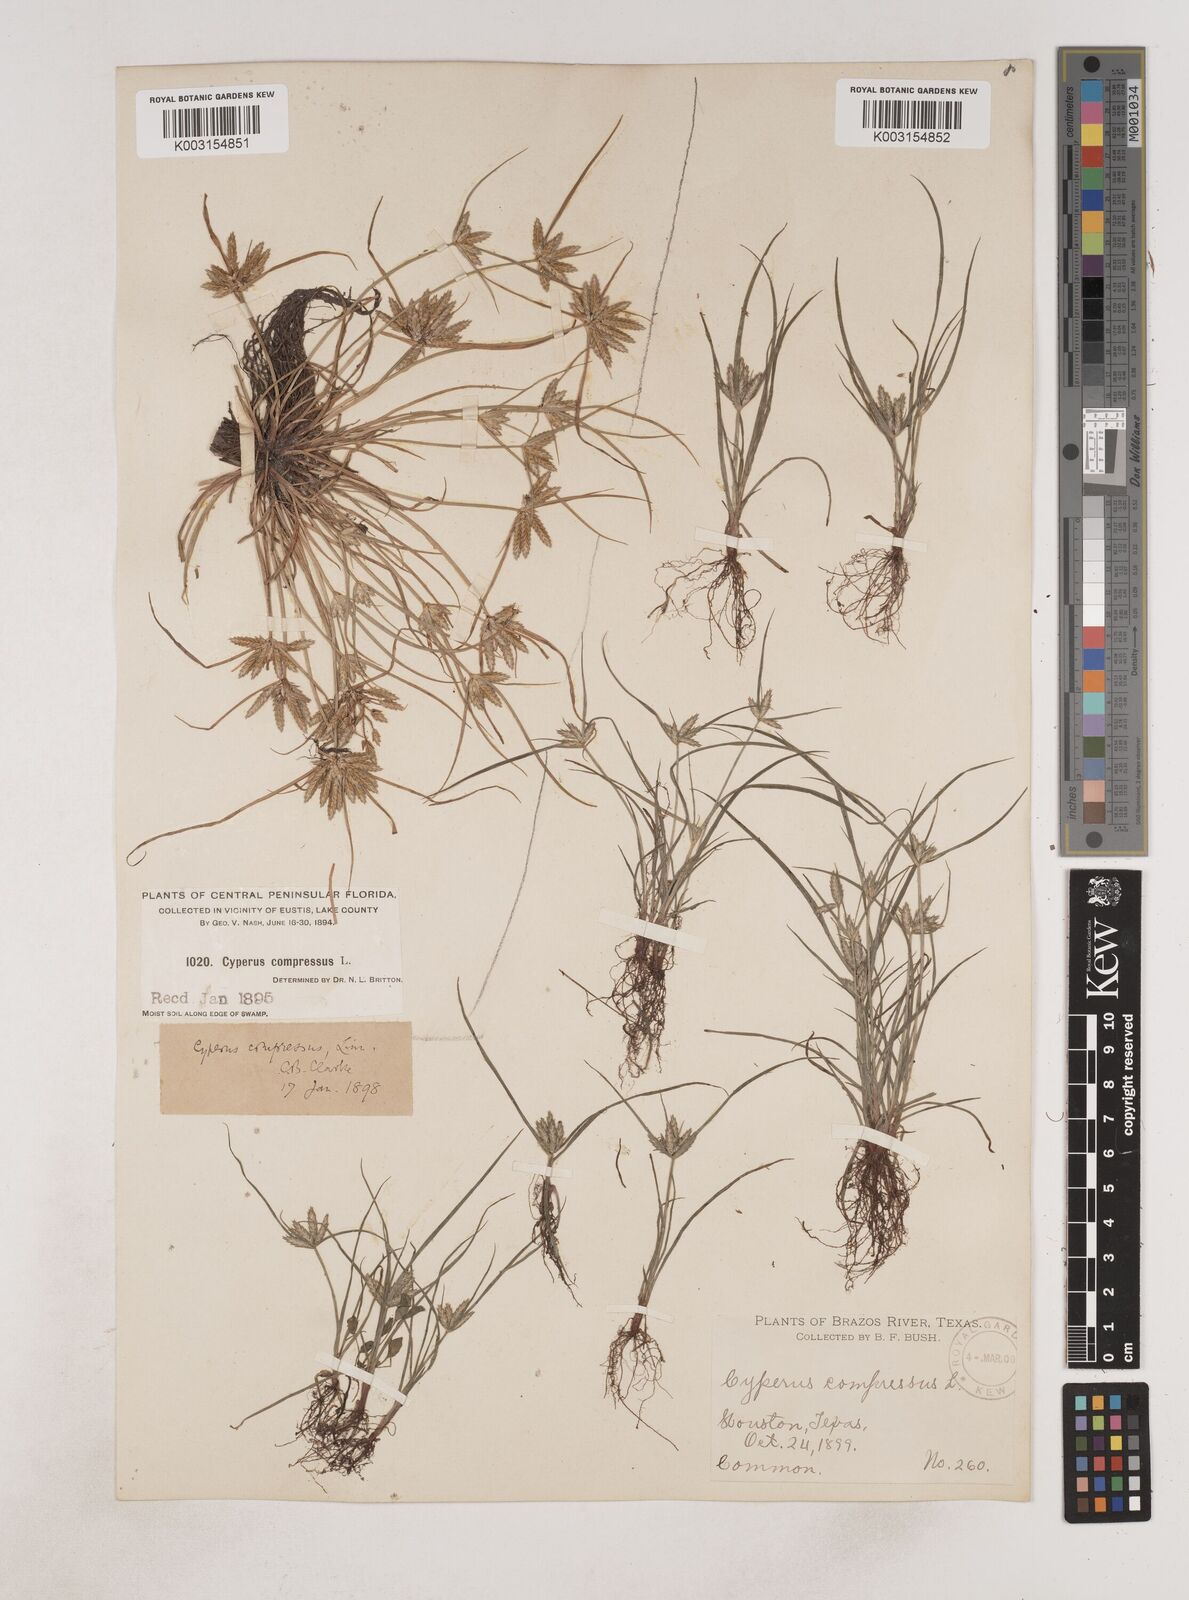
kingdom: Plantae
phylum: Tracheophyta
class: Liliopsida
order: Poales
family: Cyperaceae
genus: Cyperus
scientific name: Cyperus compressus
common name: Poorland flatsedge
